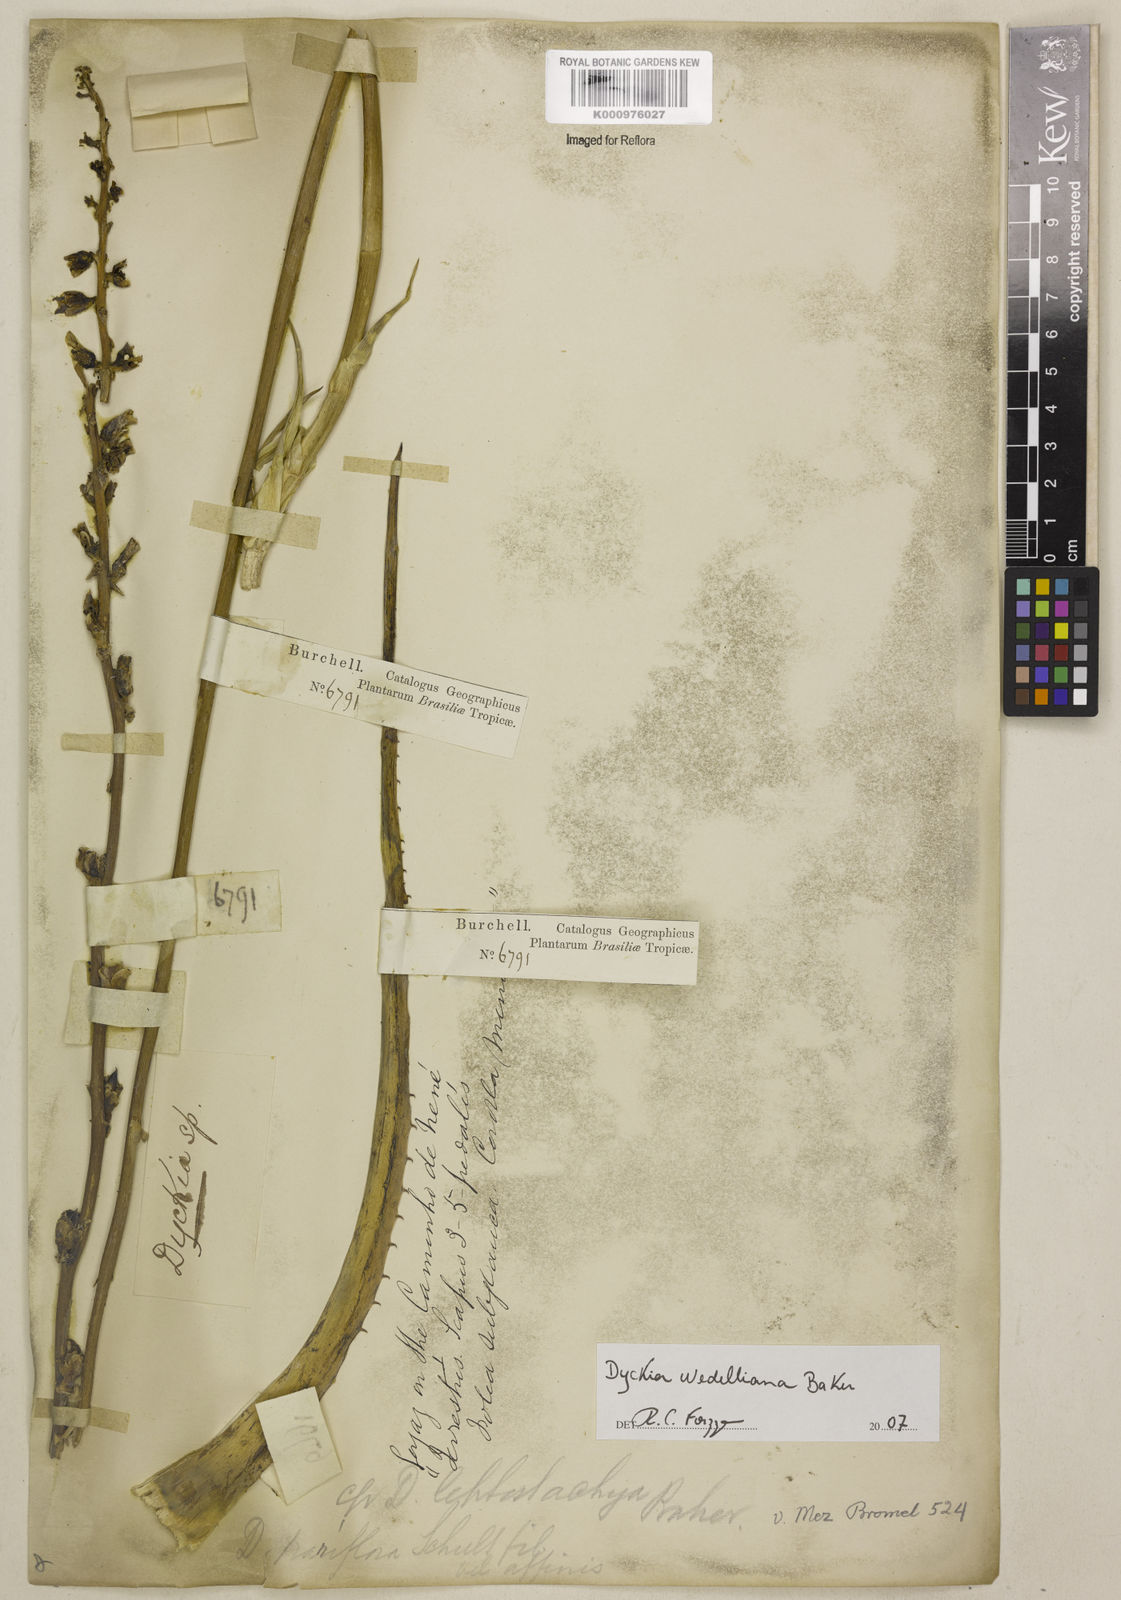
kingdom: Plantae
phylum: Tracheophyta
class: Liliopsida
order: Poales
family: Bromeliaceae
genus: Dyckia
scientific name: Dyckia weddelliana
